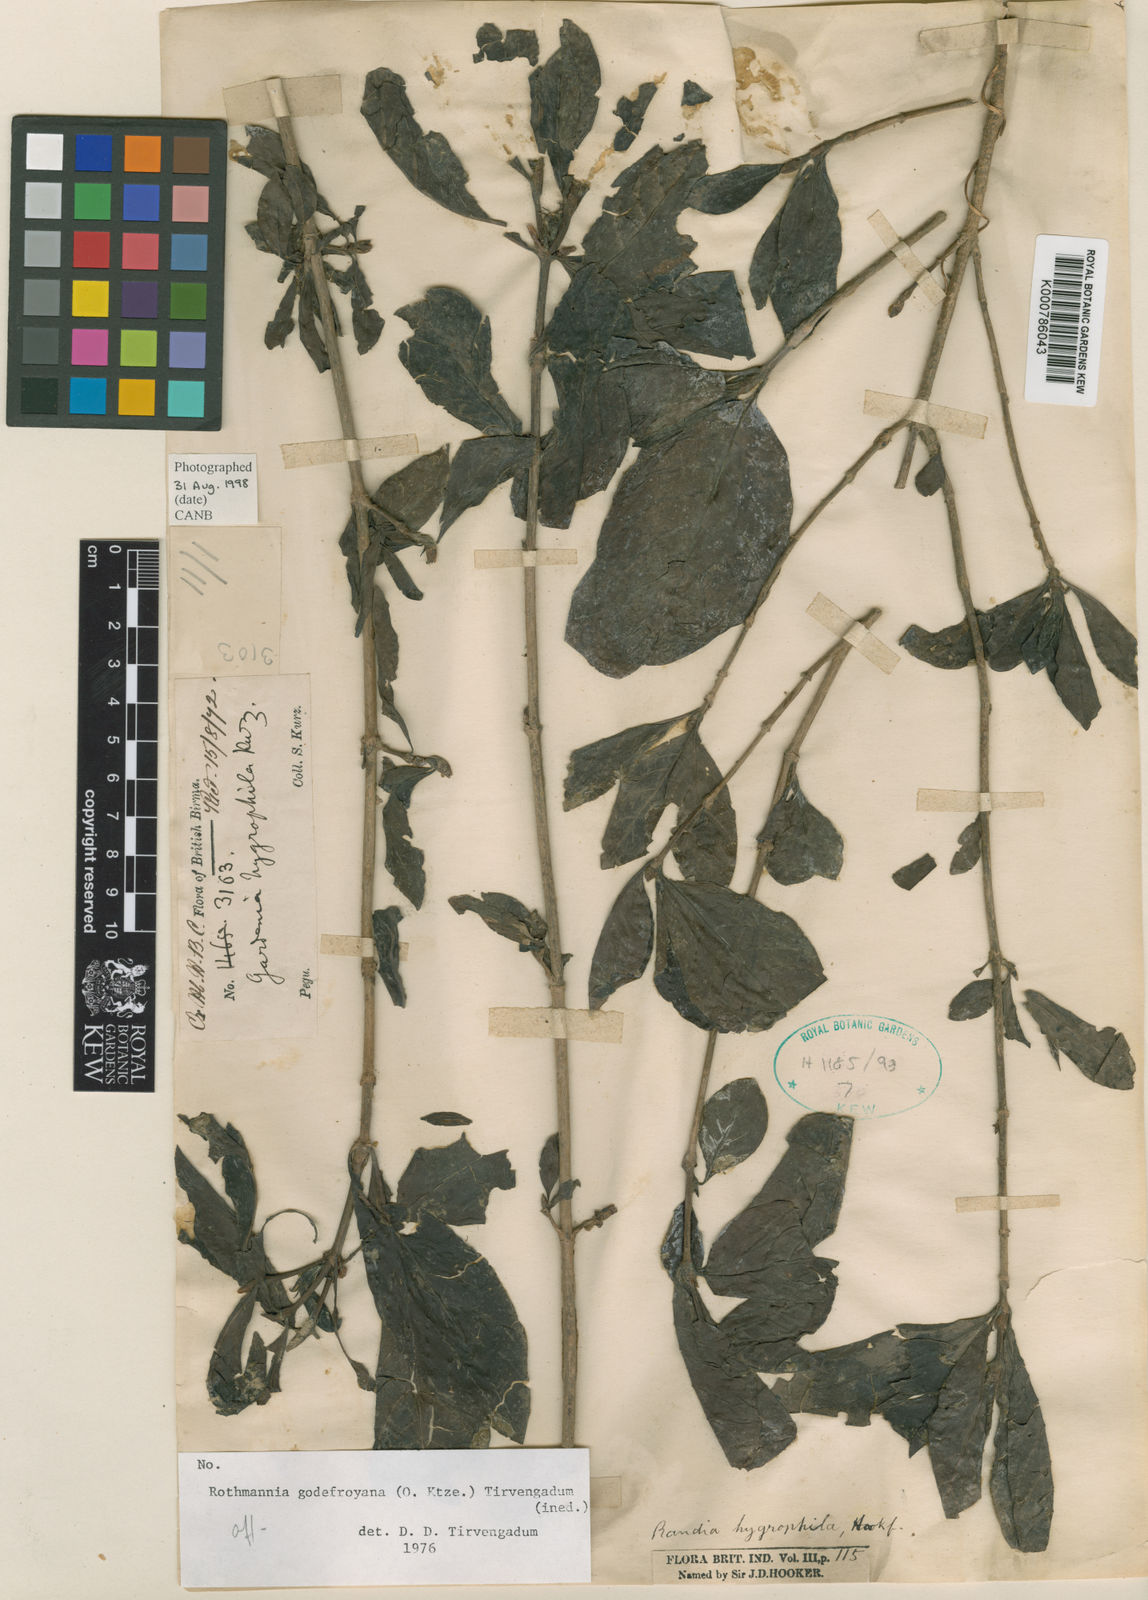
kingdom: Plantae
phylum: Tracheophyta
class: Magnoliopsida
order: Gentianales
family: Rubiaceae
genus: Kailarsenia
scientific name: Kailarsenia hygrophila
